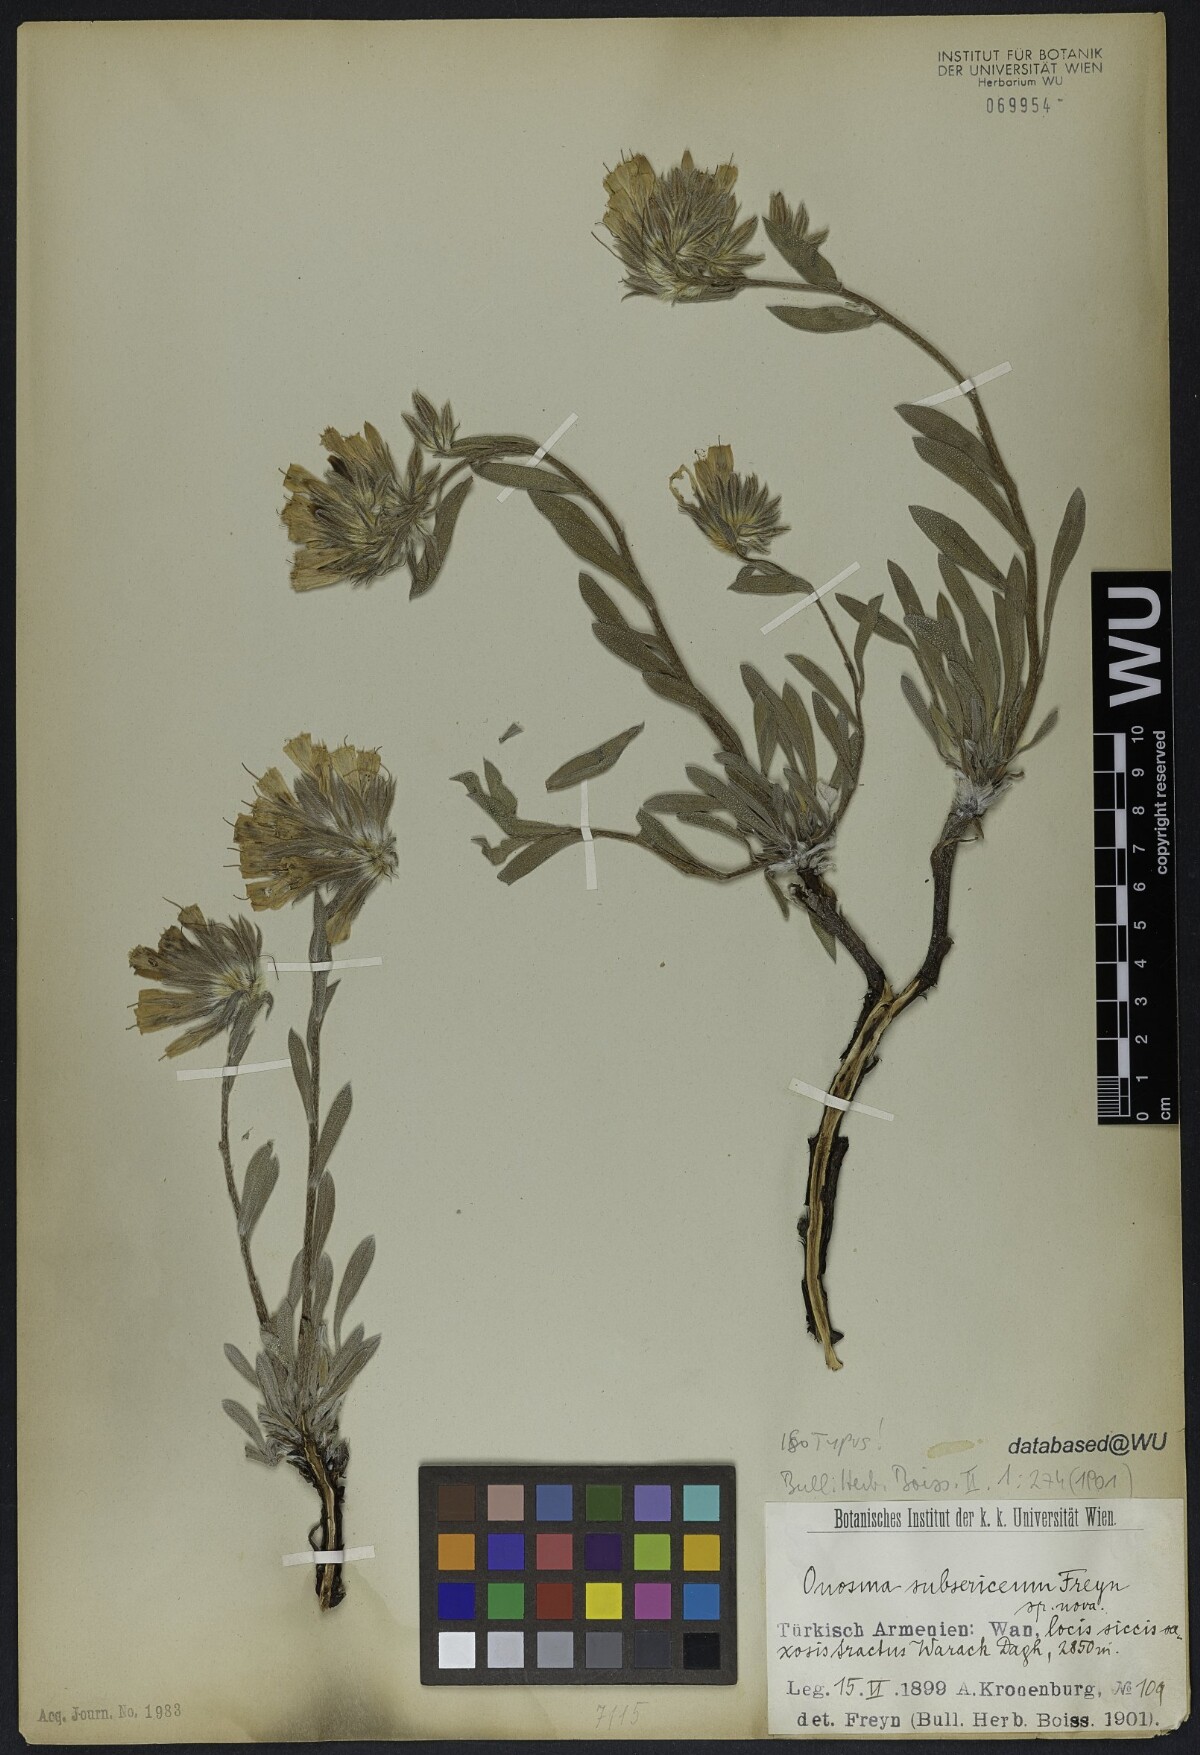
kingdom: Plantae
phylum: Tracheophyta
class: Magnoliopsida
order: Boraginales
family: Boraginaceae
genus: Onosma
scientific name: Onosma subsericea
